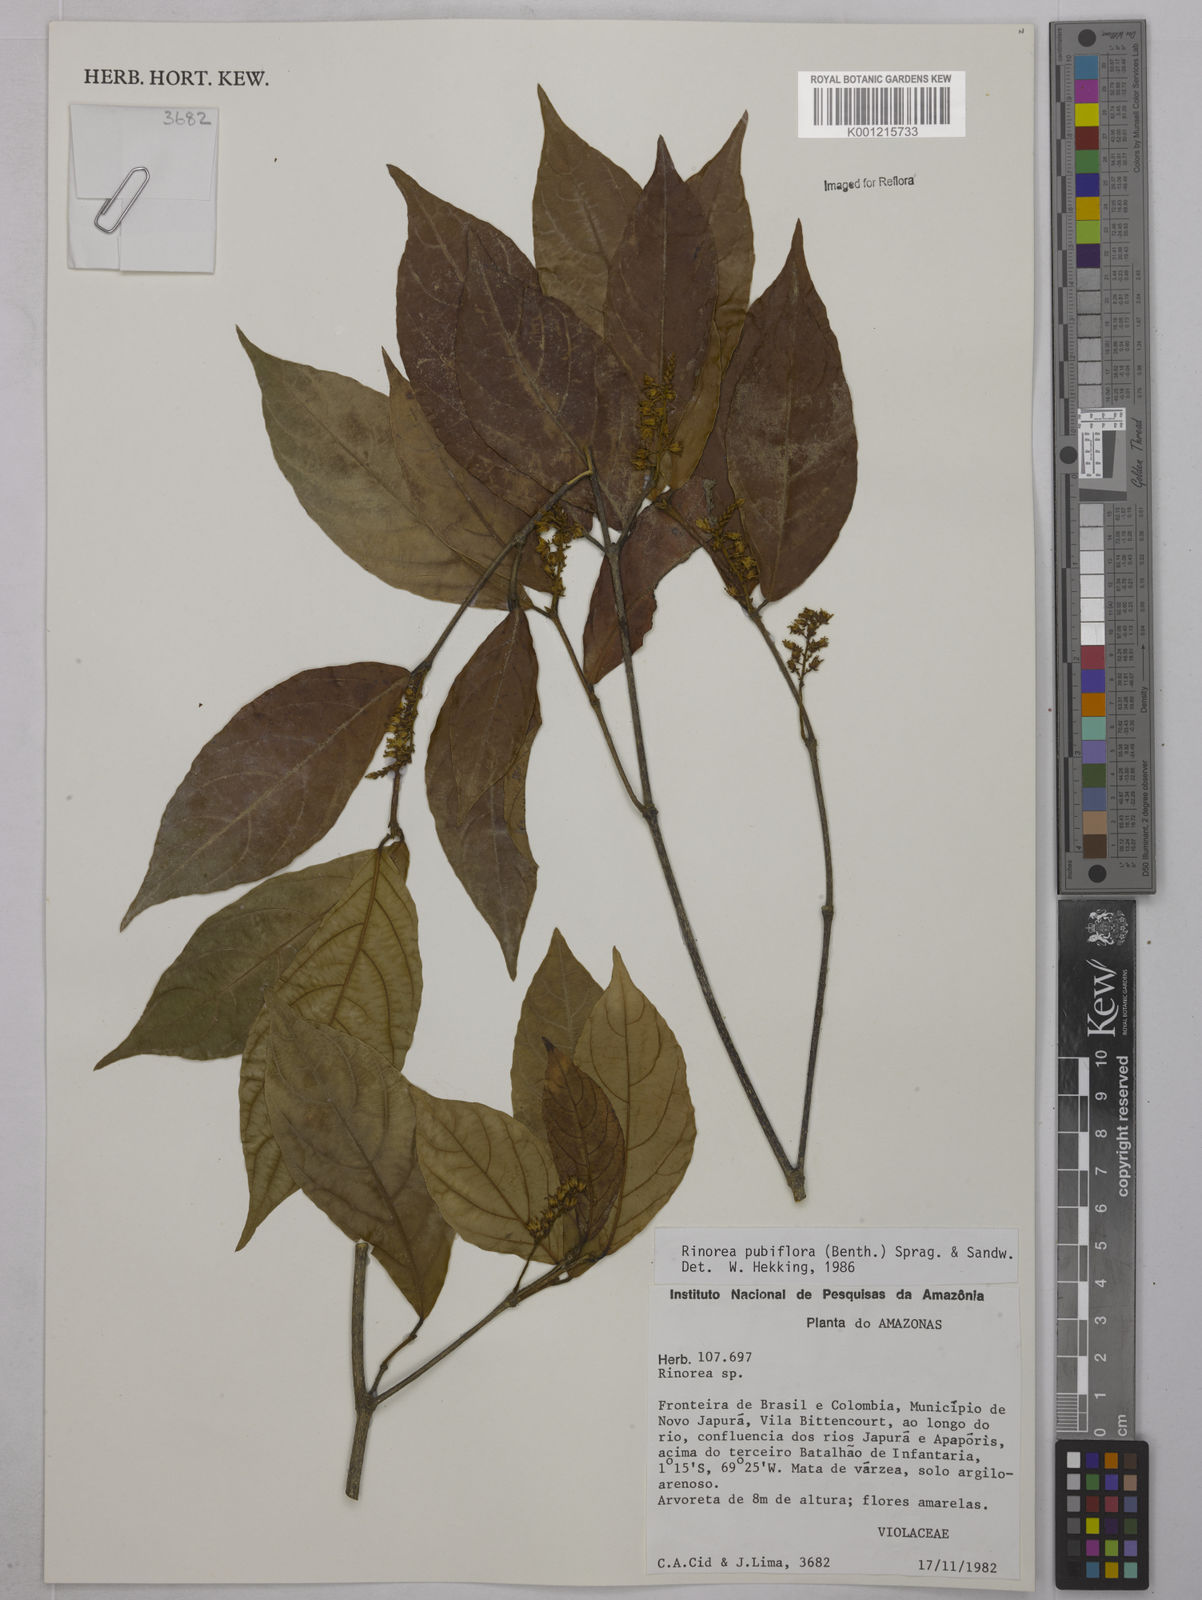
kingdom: Plantae
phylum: Tracheophyta
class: Magnoliopsida
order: Malpighiales
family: Violaceae
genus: Rinorea
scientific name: Rinorea pubiflora
